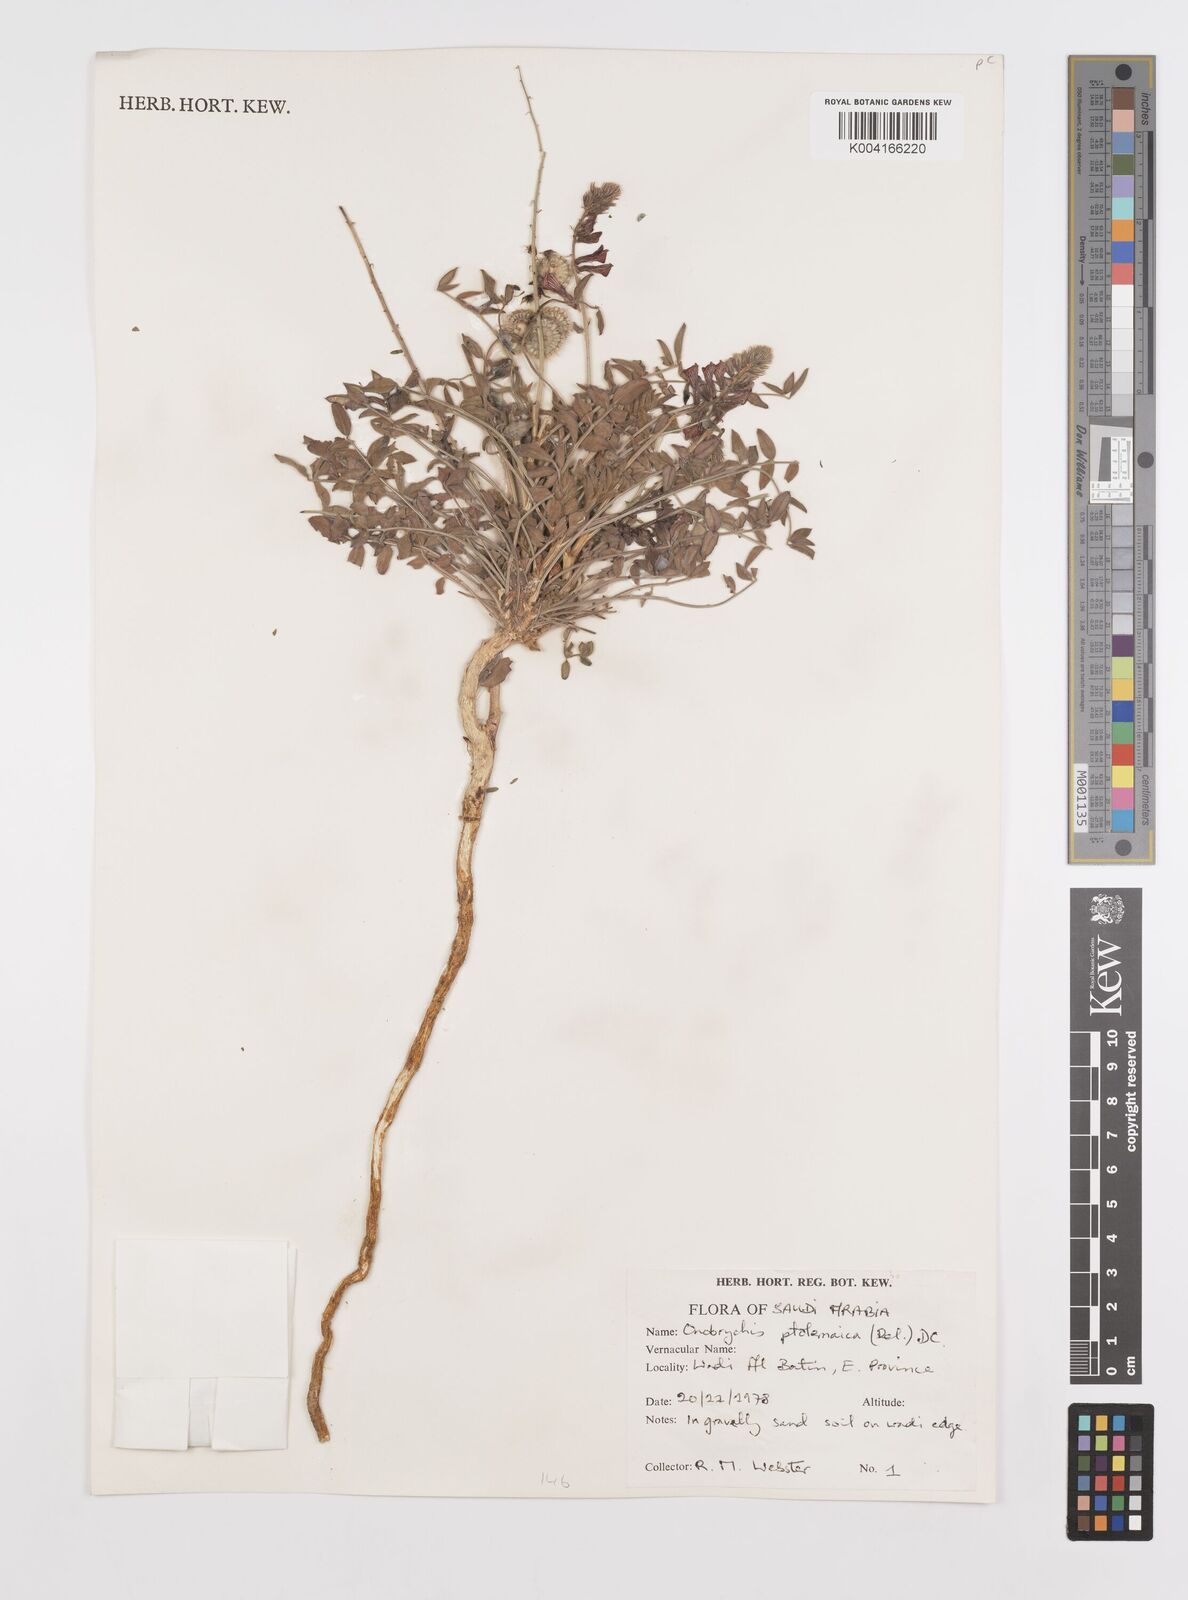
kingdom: Plantae
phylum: Tracheophyta
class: Magnoliopsida
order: Fabales
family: Fabaceae
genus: Onobrychis
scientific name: Onobrychis ptolemaica
